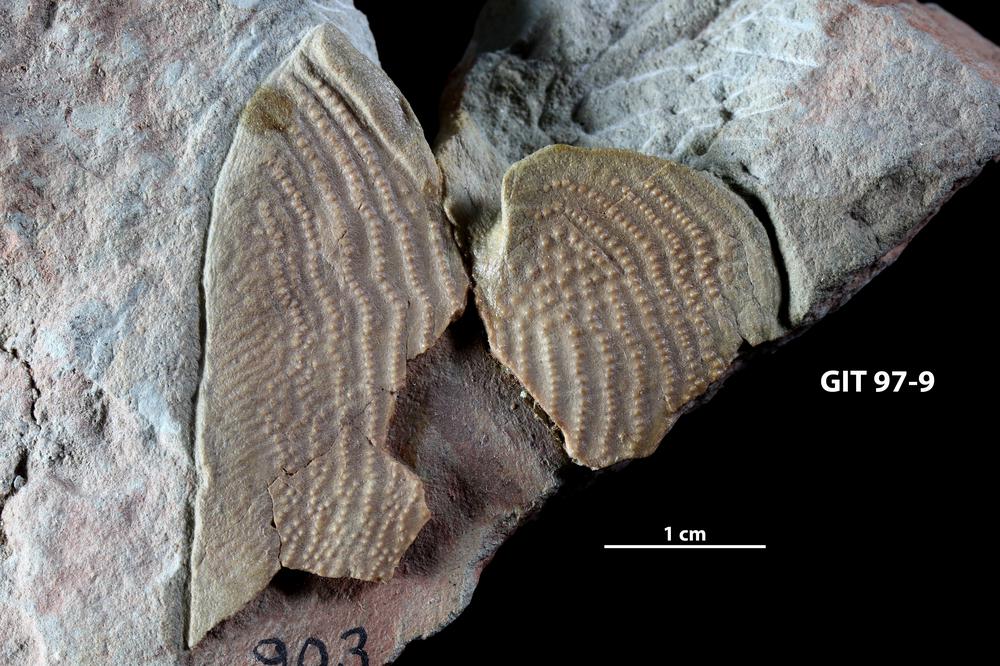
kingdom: Animalia
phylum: Chordata
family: Holonematidae
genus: Holonema
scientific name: Holonema obrutshevi
